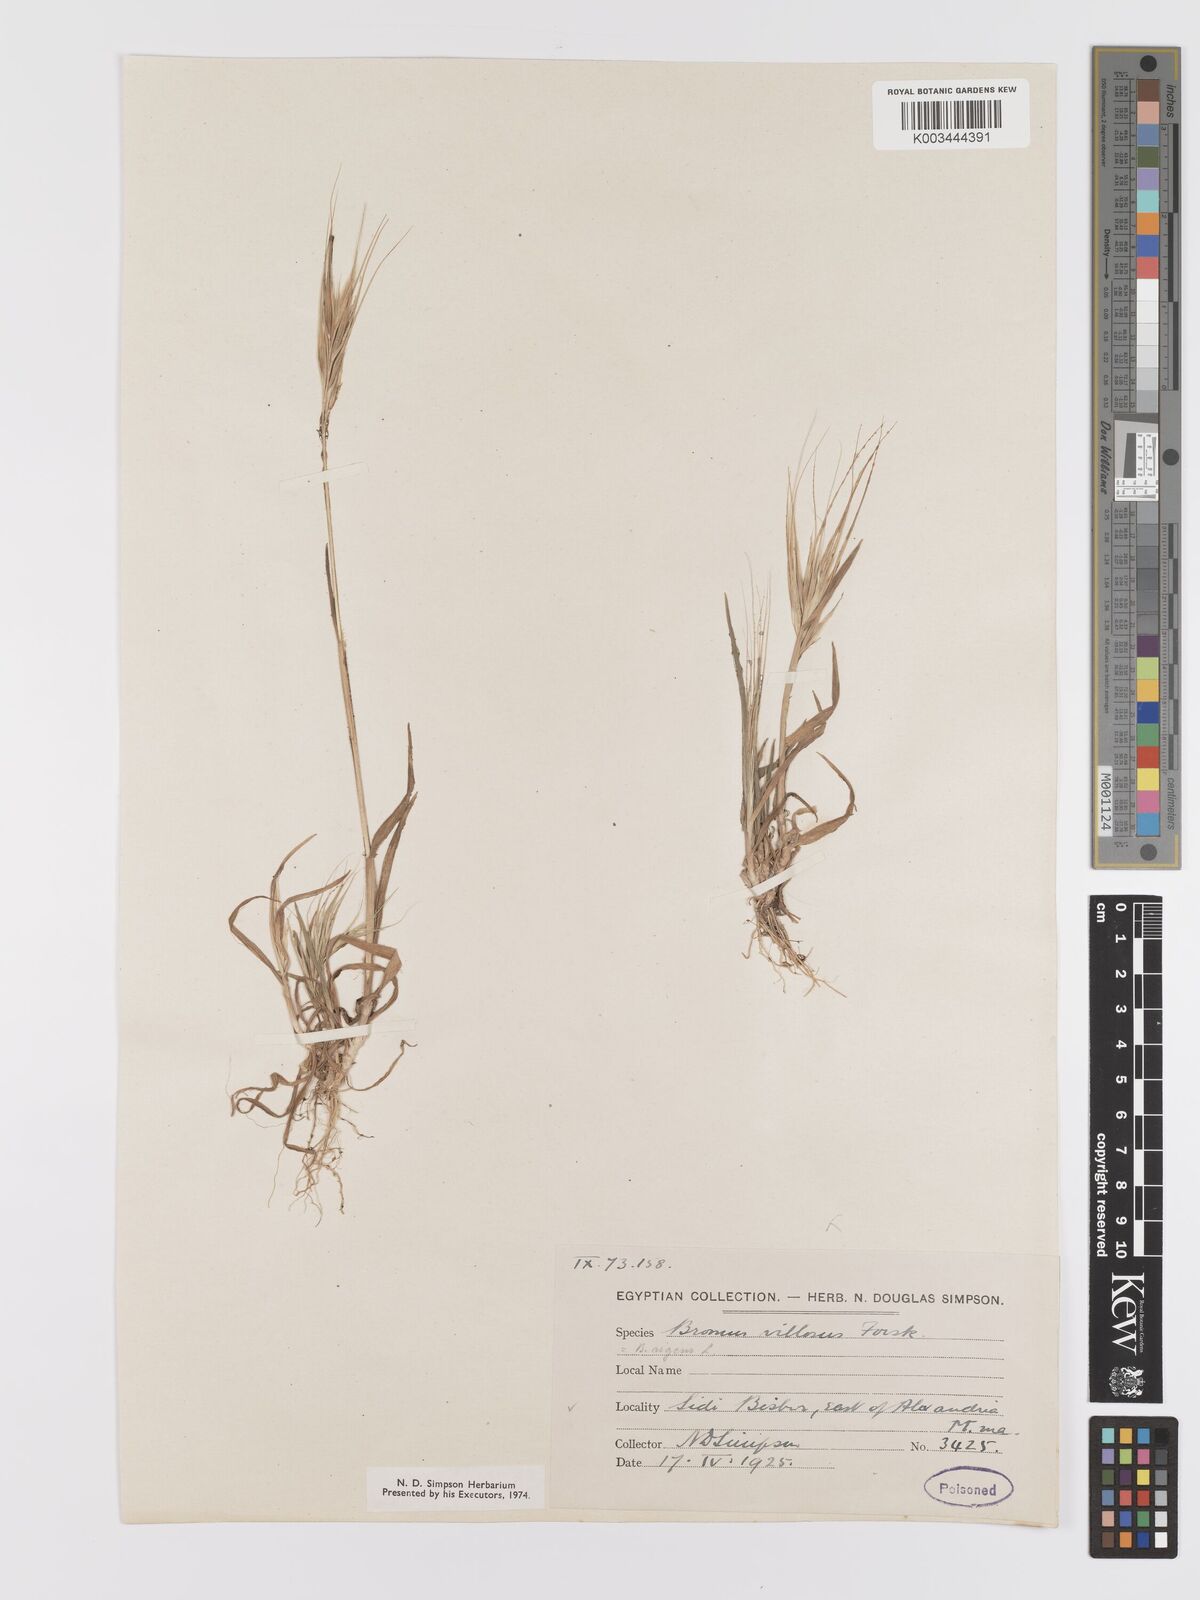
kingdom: Plantae
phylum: Tracheophyta
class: Liliopsida
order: Poales
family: Poaceae
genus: Bromus
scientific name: Bromus
